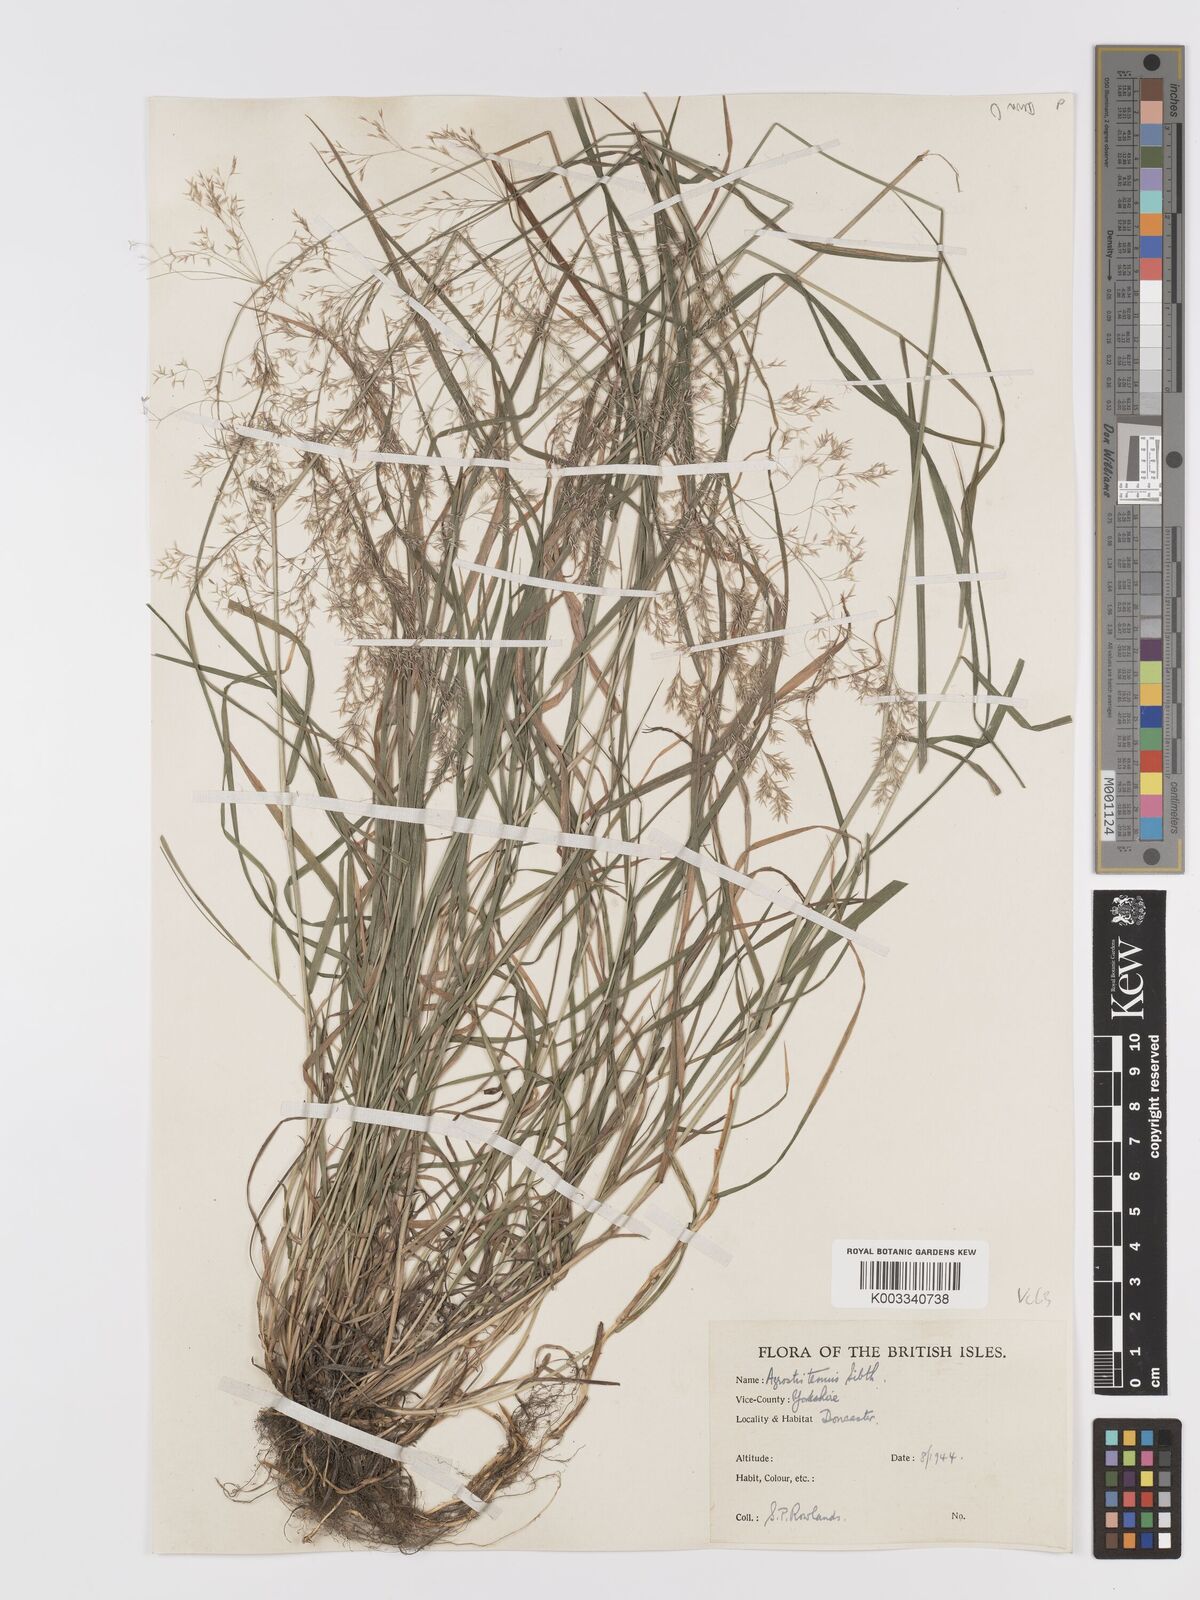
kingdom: Plantae
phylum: Tracheophyta
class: Liliopsida
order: Poales
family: Poaceae
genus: Agrostis
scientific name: Agrostis capillaris
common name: Colonial bentgrass
